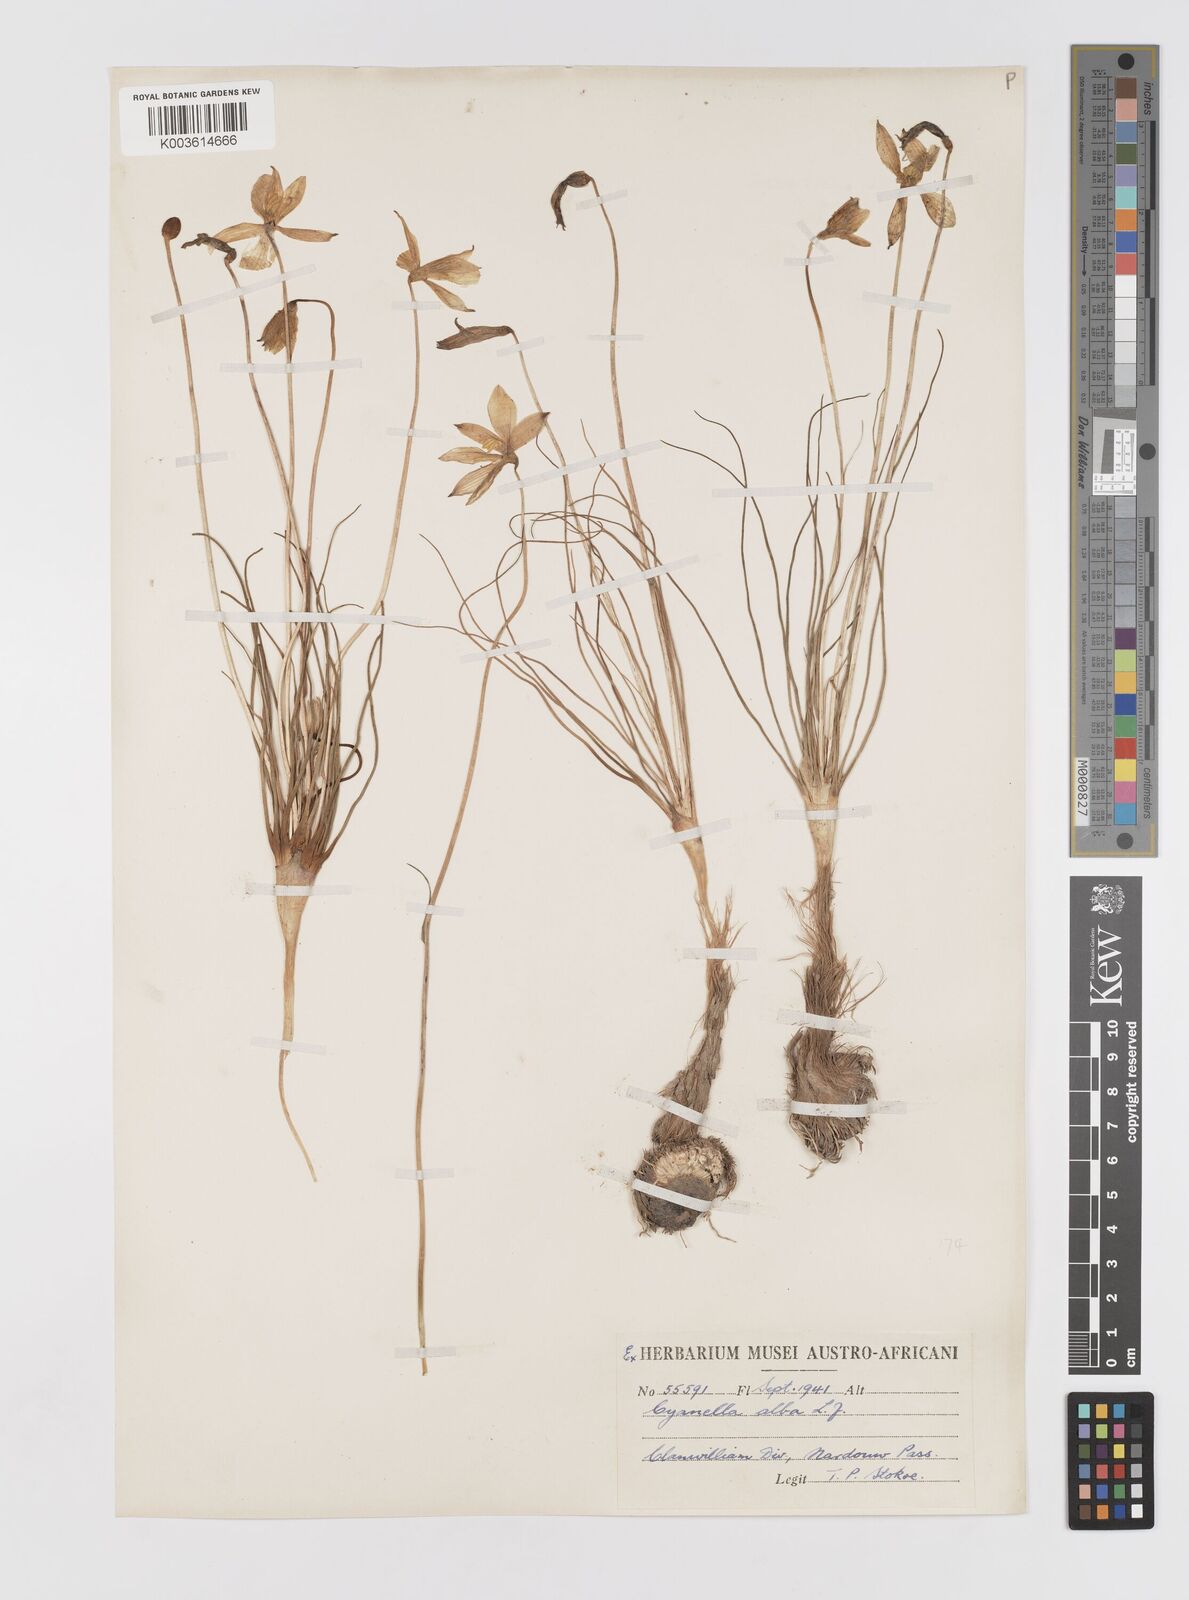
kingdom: Plantae
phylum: Tracheophyta
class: Liliopsida
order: Asparagales
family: Tecophilaeaceae
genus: Cyanella
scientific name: Cyanella alba
